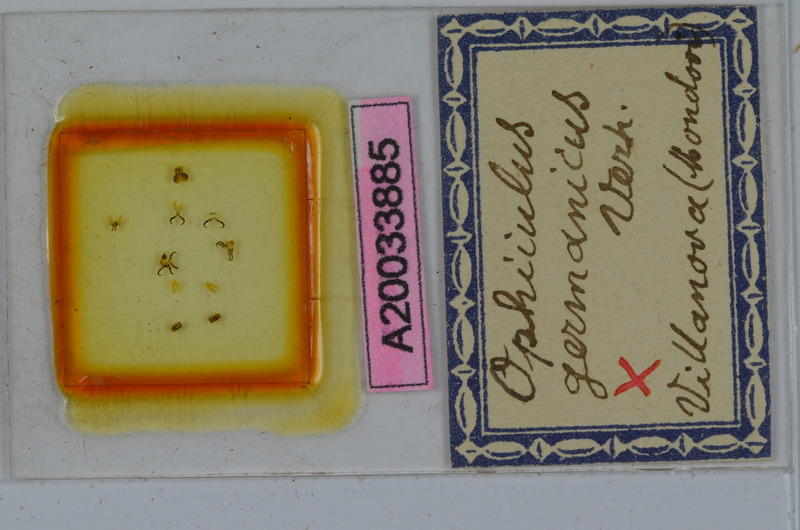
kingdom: Animalia
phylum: Arthropoda
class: Diplopoda
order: Julida
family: Julidae
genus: Ophyiulus
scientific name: Ophyiulus germanicus
